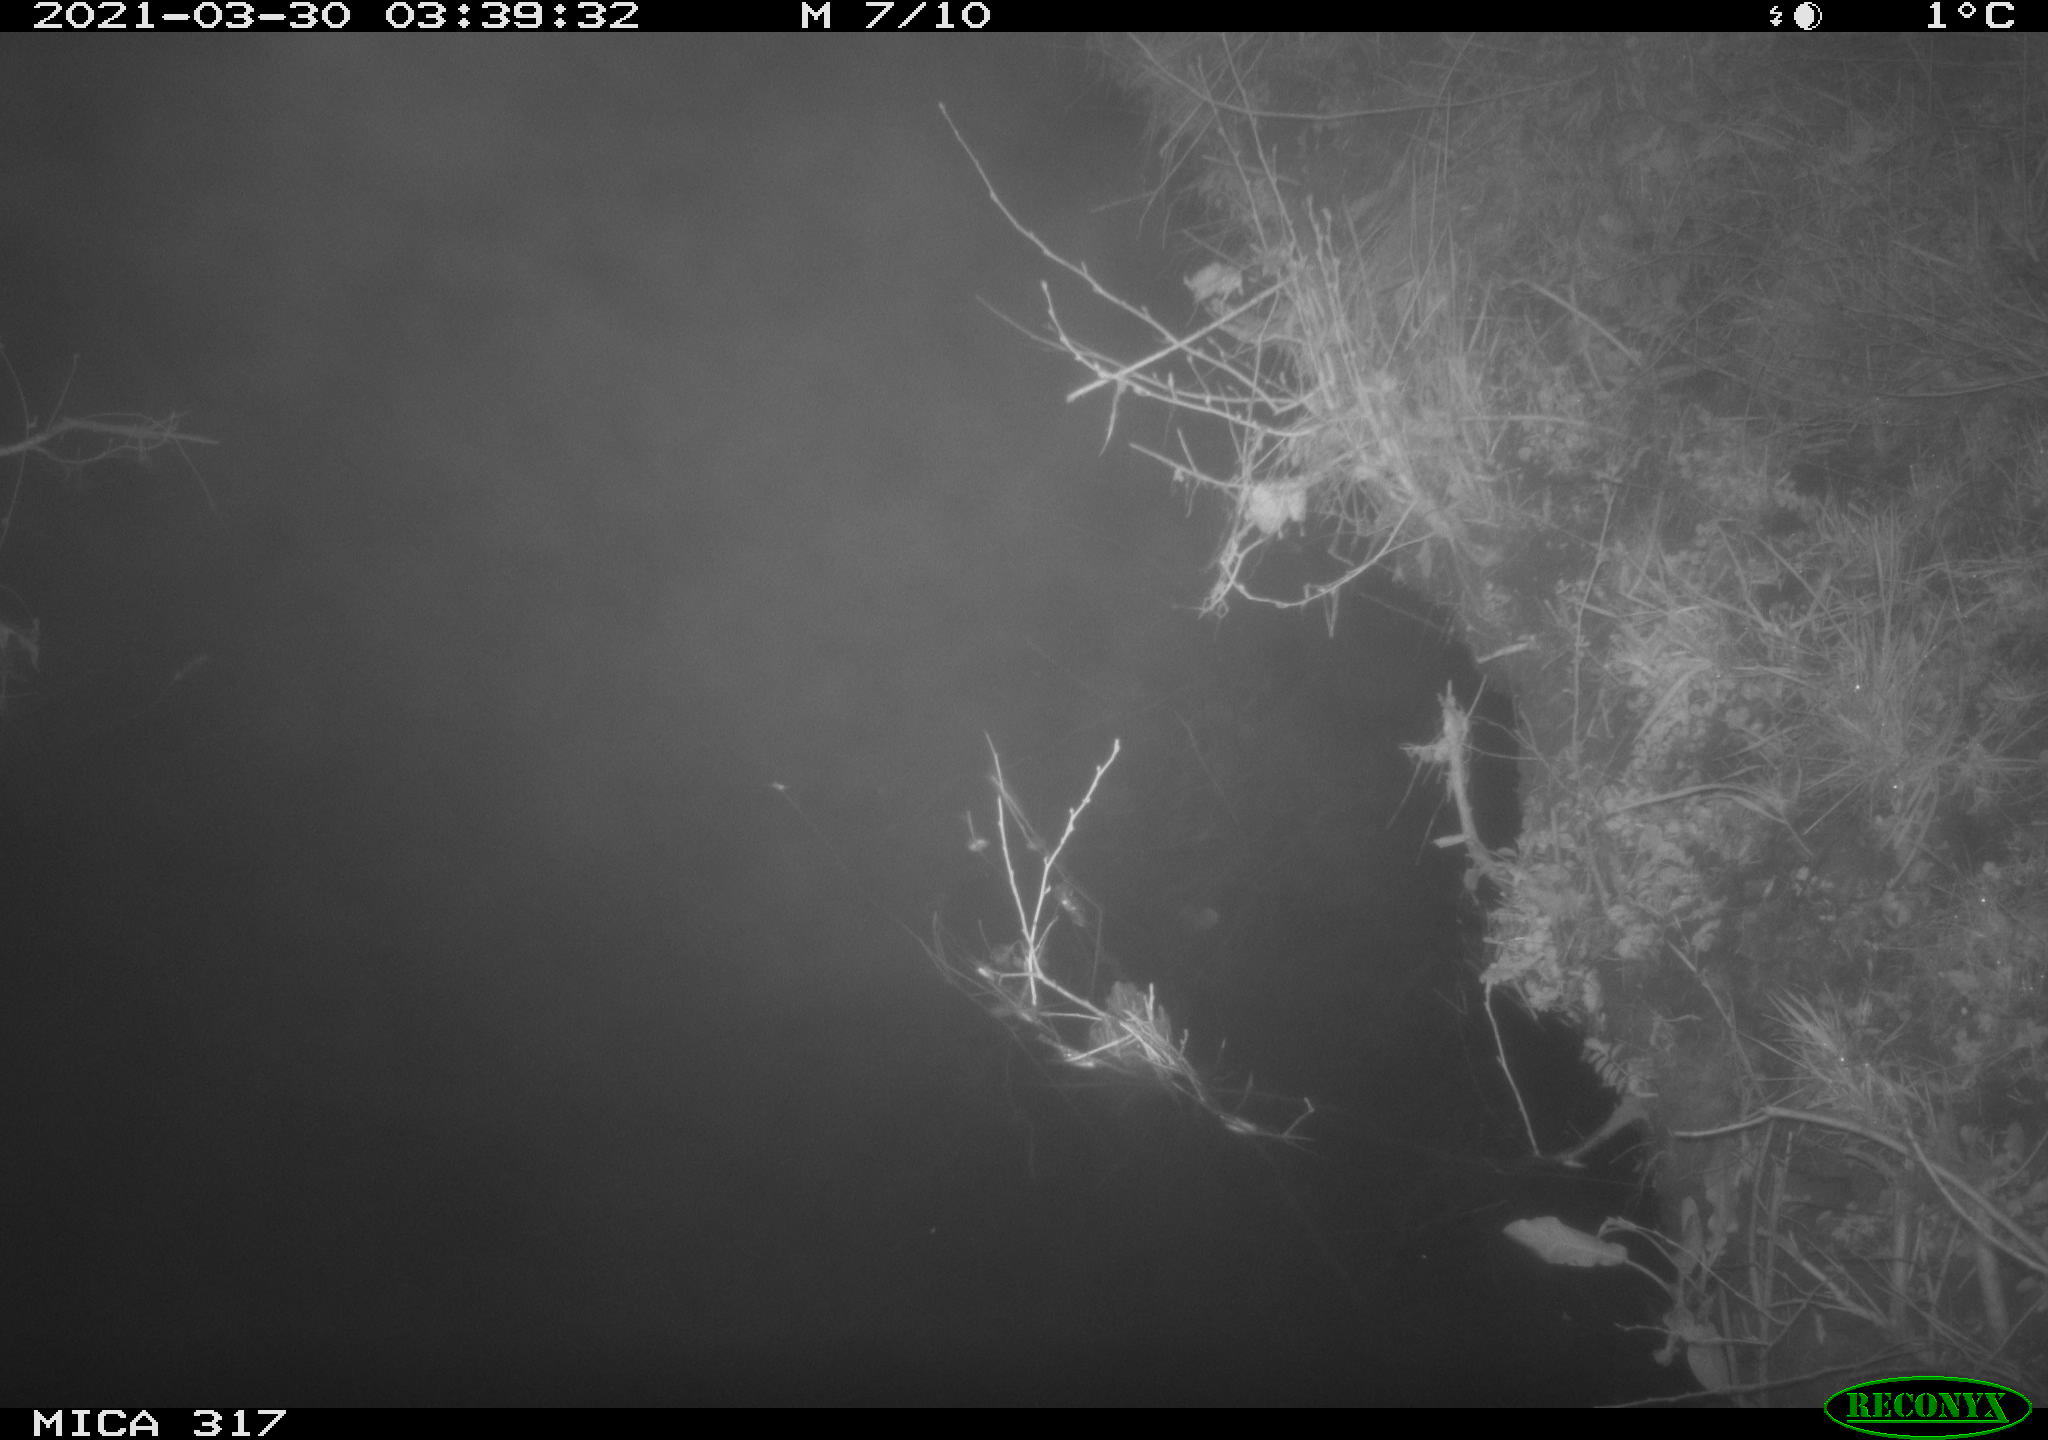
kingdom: Animalia
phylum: Chordata
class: Aves
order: Anseriformes
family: Anatidae
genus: Anas
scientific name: Anas platyrhynchos
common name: Mallard
